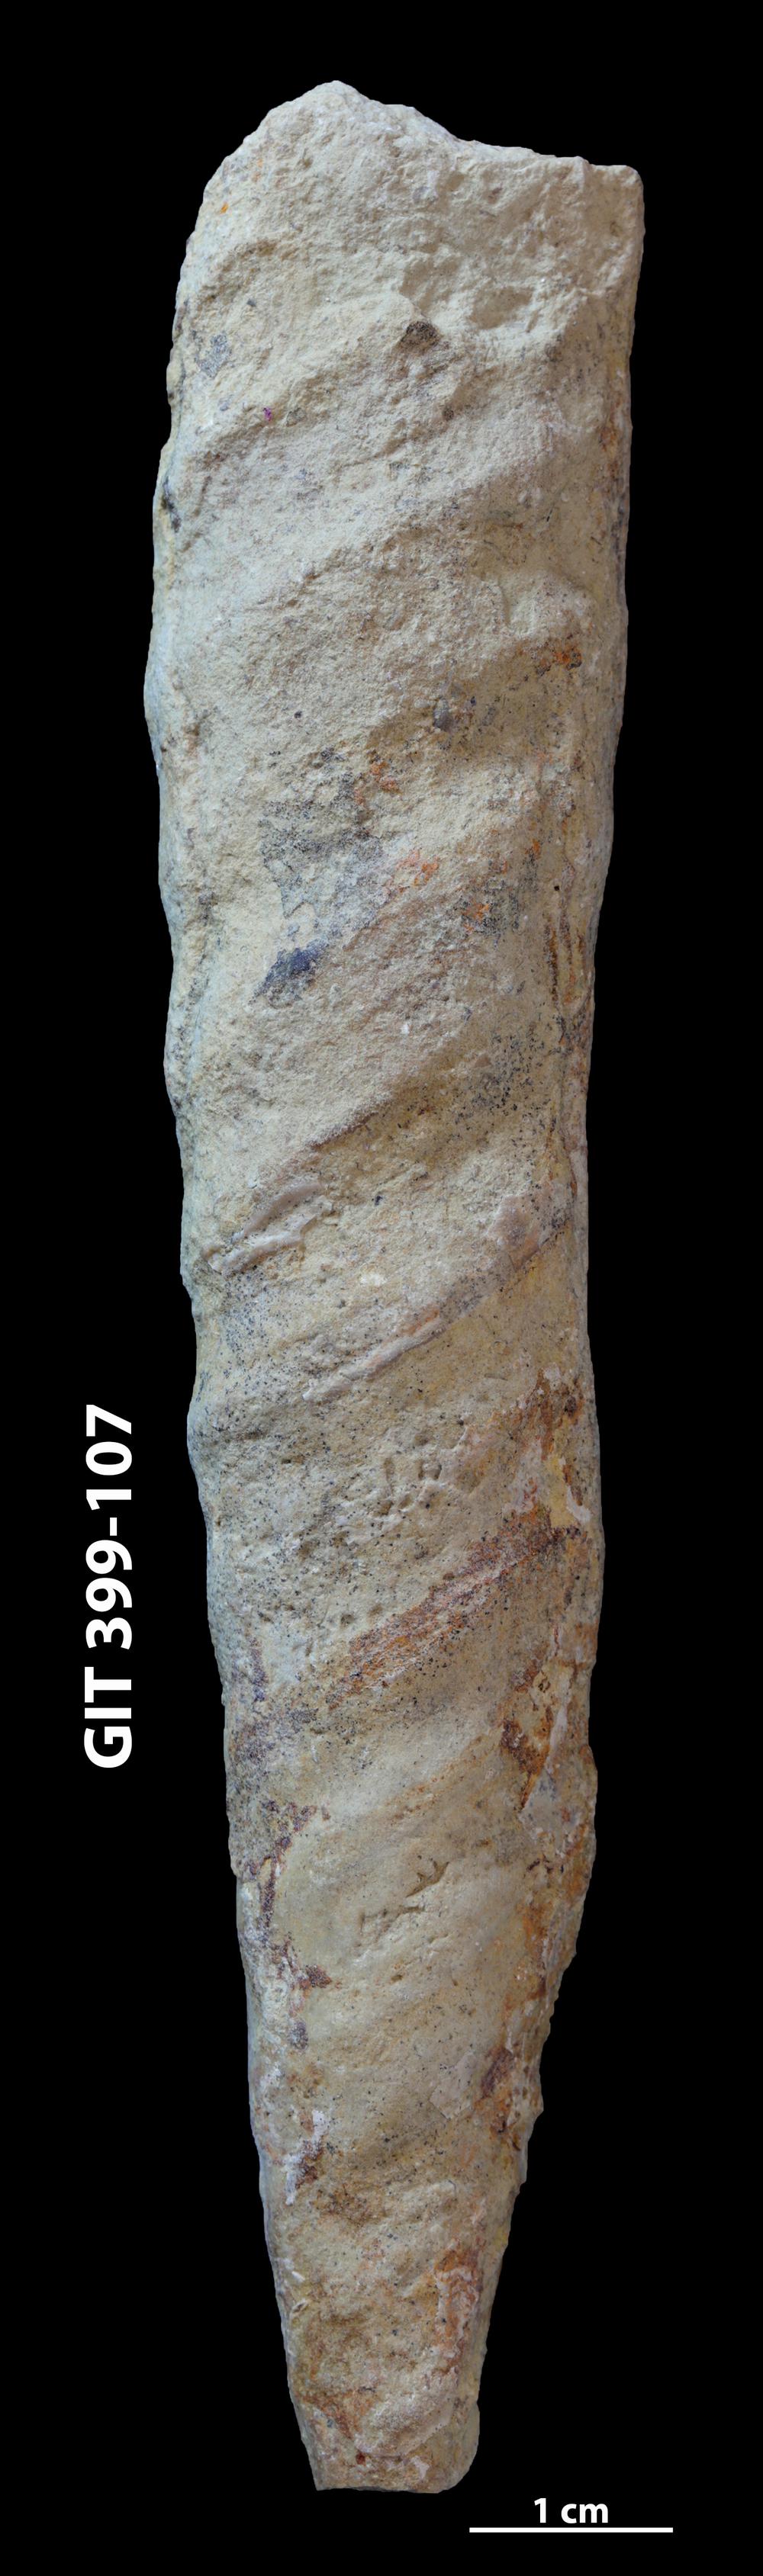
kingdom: Animalia
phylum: Mollusca
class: Cephalopoda
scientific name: Cephalopoda
